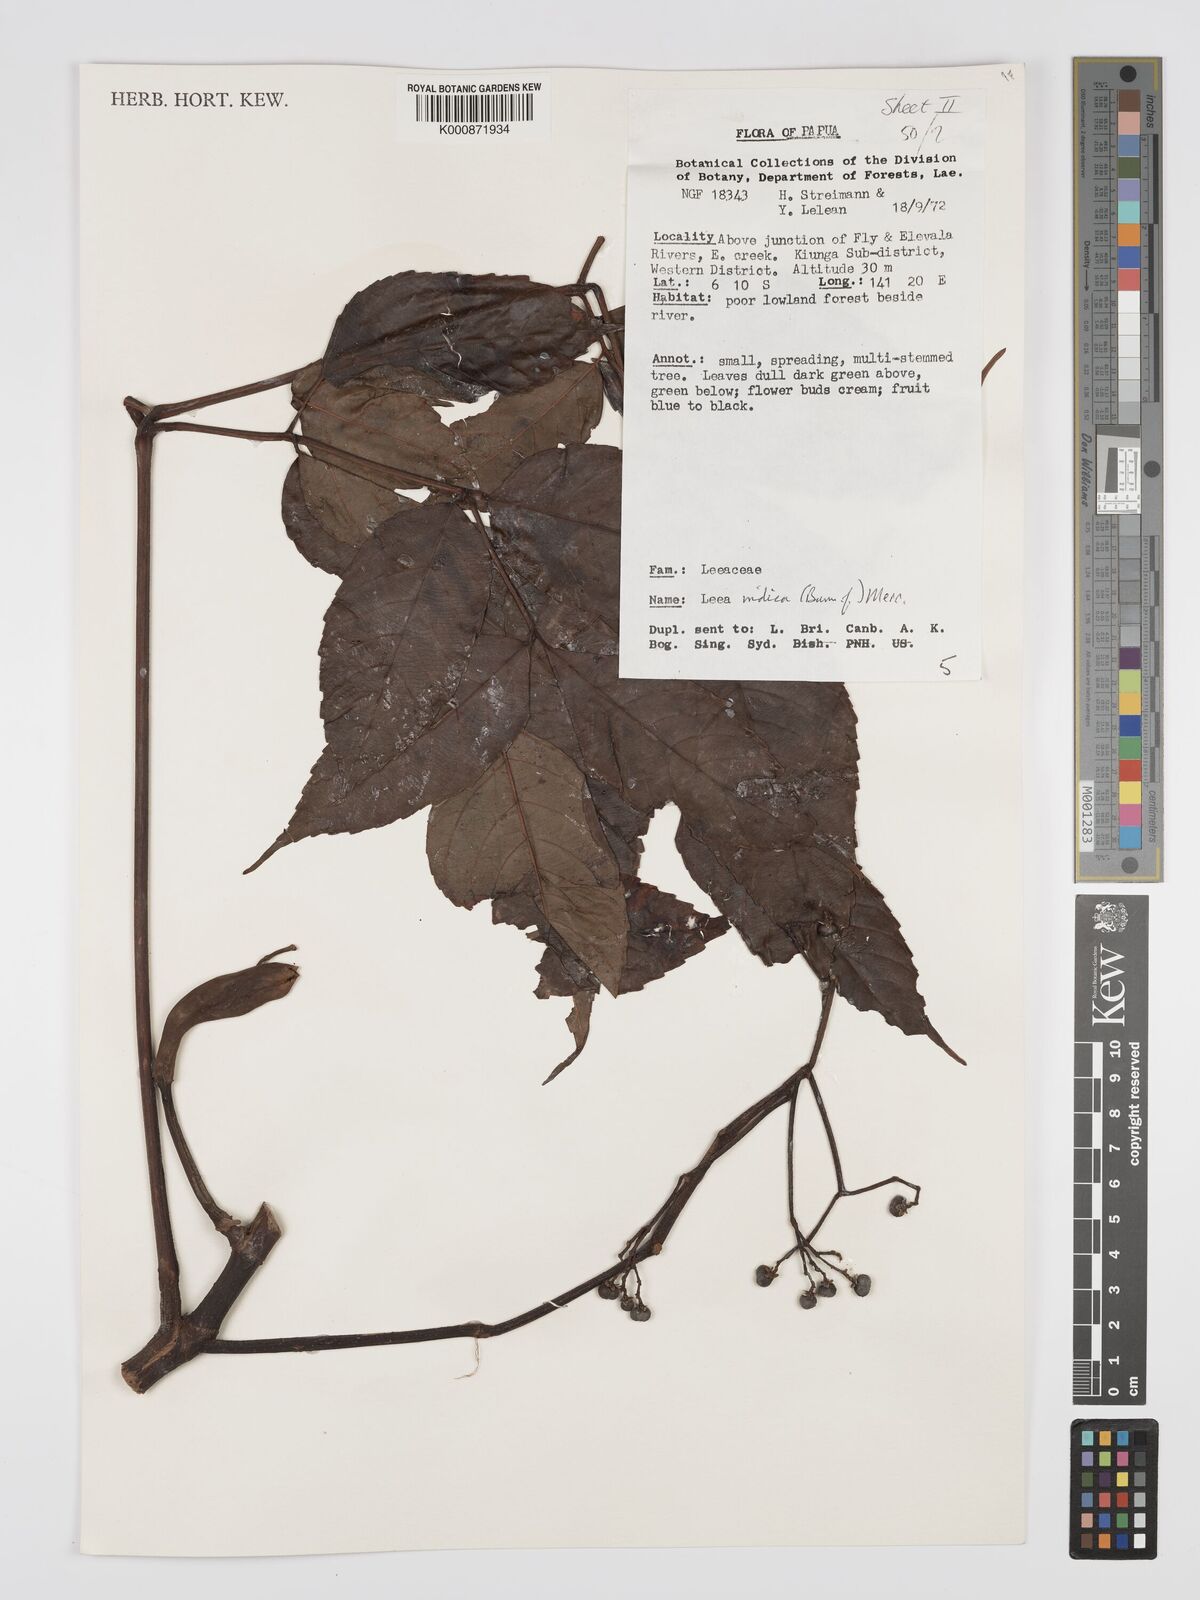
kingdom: Plantae
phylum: Tracheophyta
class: Magnoliopsida
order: Vitales
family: Vitaceae
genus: Leea
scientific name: Leea indica
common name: Bandicoot-berry
